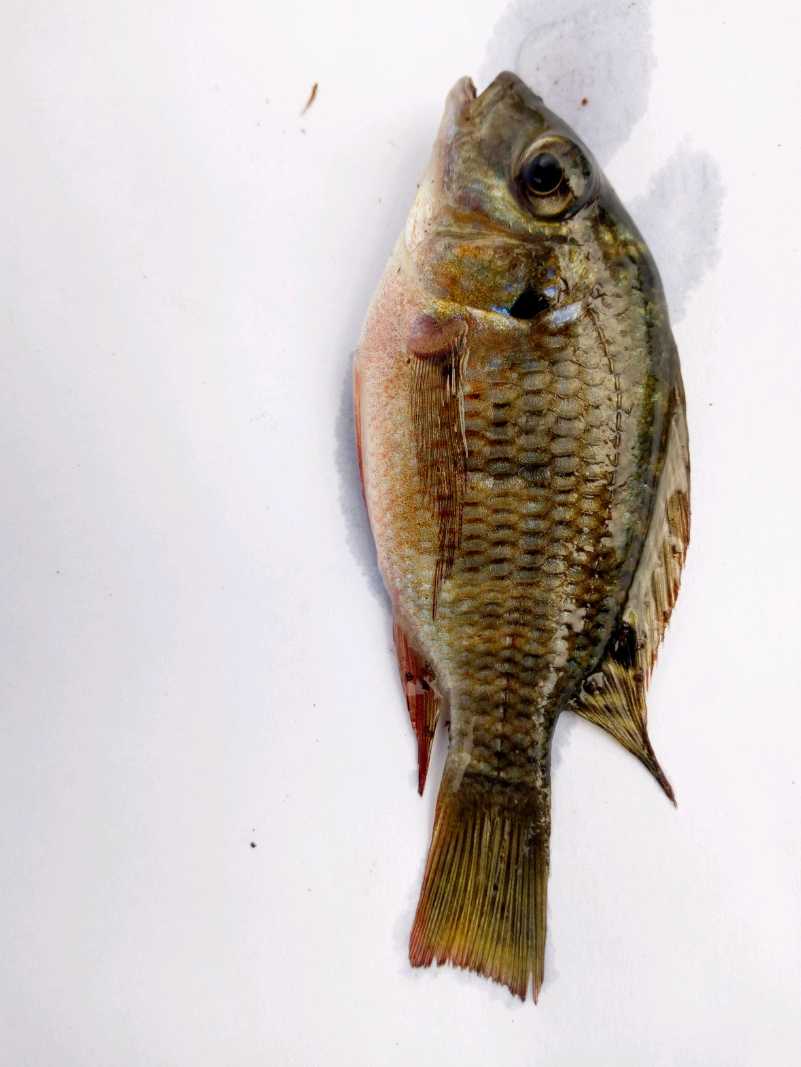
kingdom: Animalia
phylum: Chordata
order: Perciformes
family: Cichlidae
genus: Coptodon
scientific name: Coptodon rendalli
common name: Redbreast tilapia
